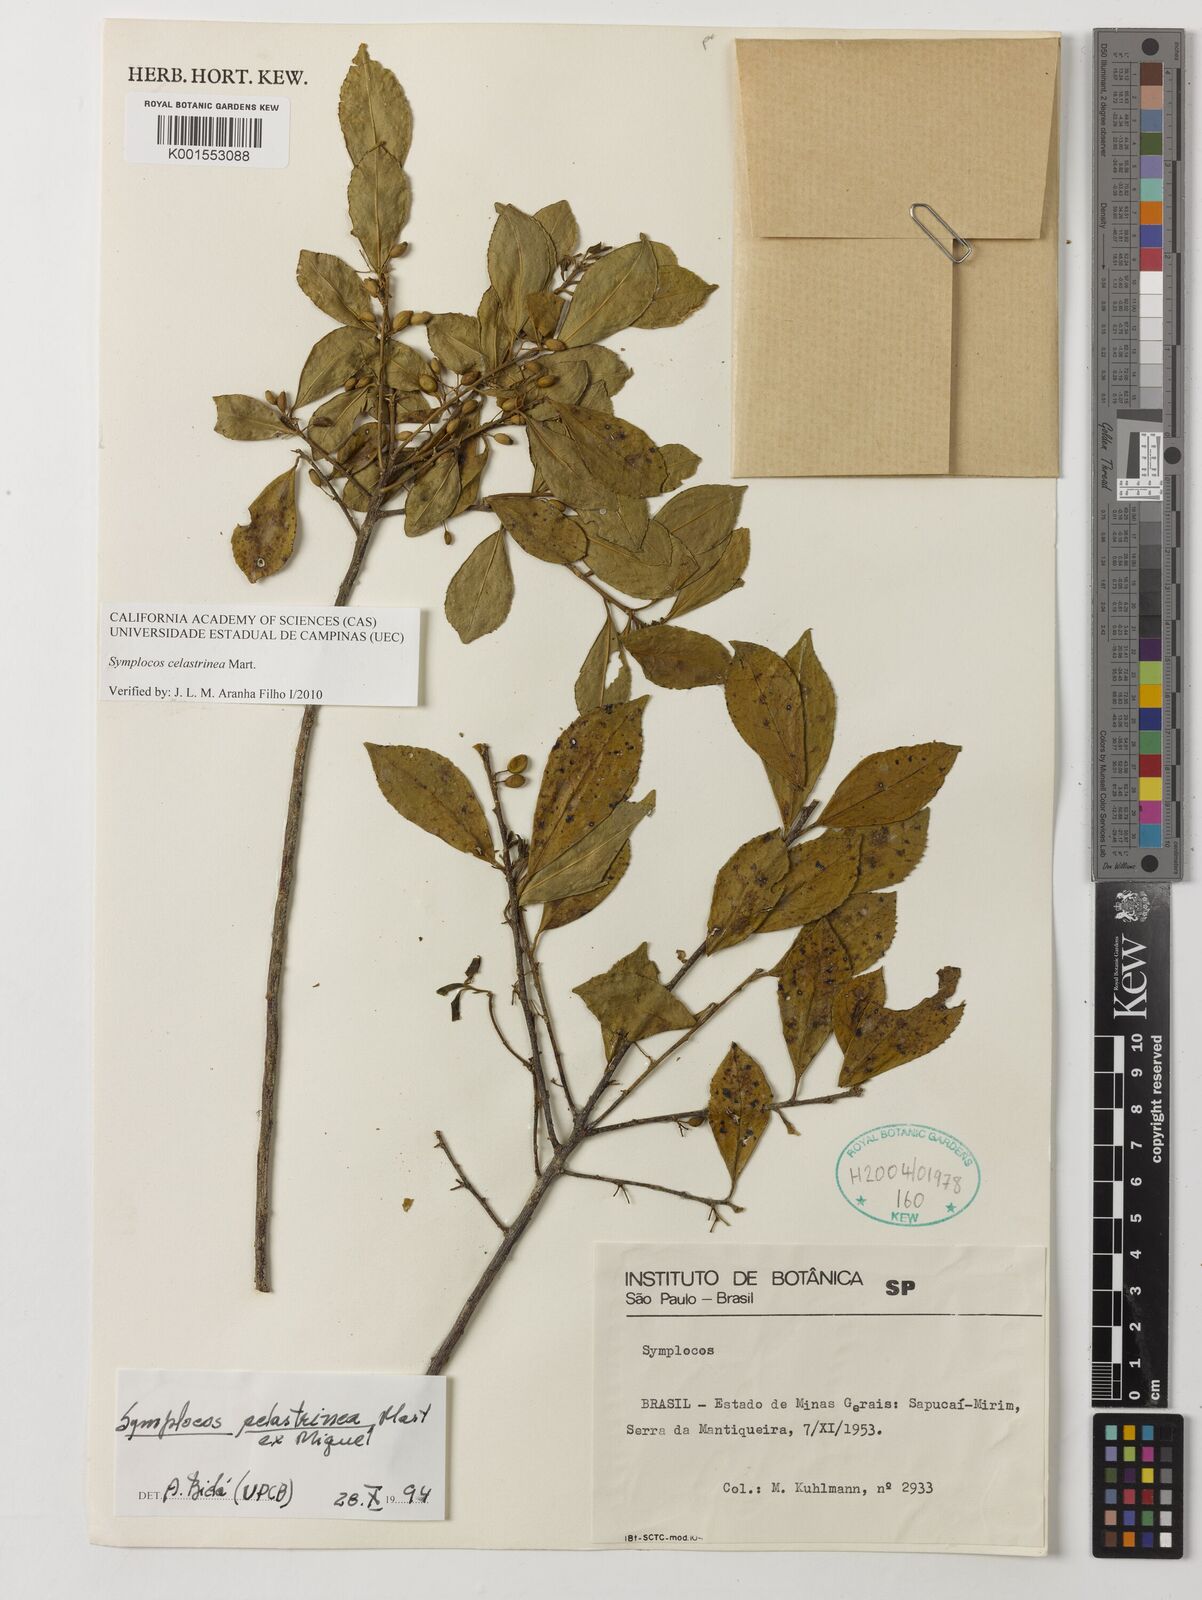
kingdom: Plantae
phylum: Tracheophyta
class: Magnoliopsida
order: Ericales
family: Symplocaceae
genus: Symplocos
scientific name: Symplocos celastrinea
